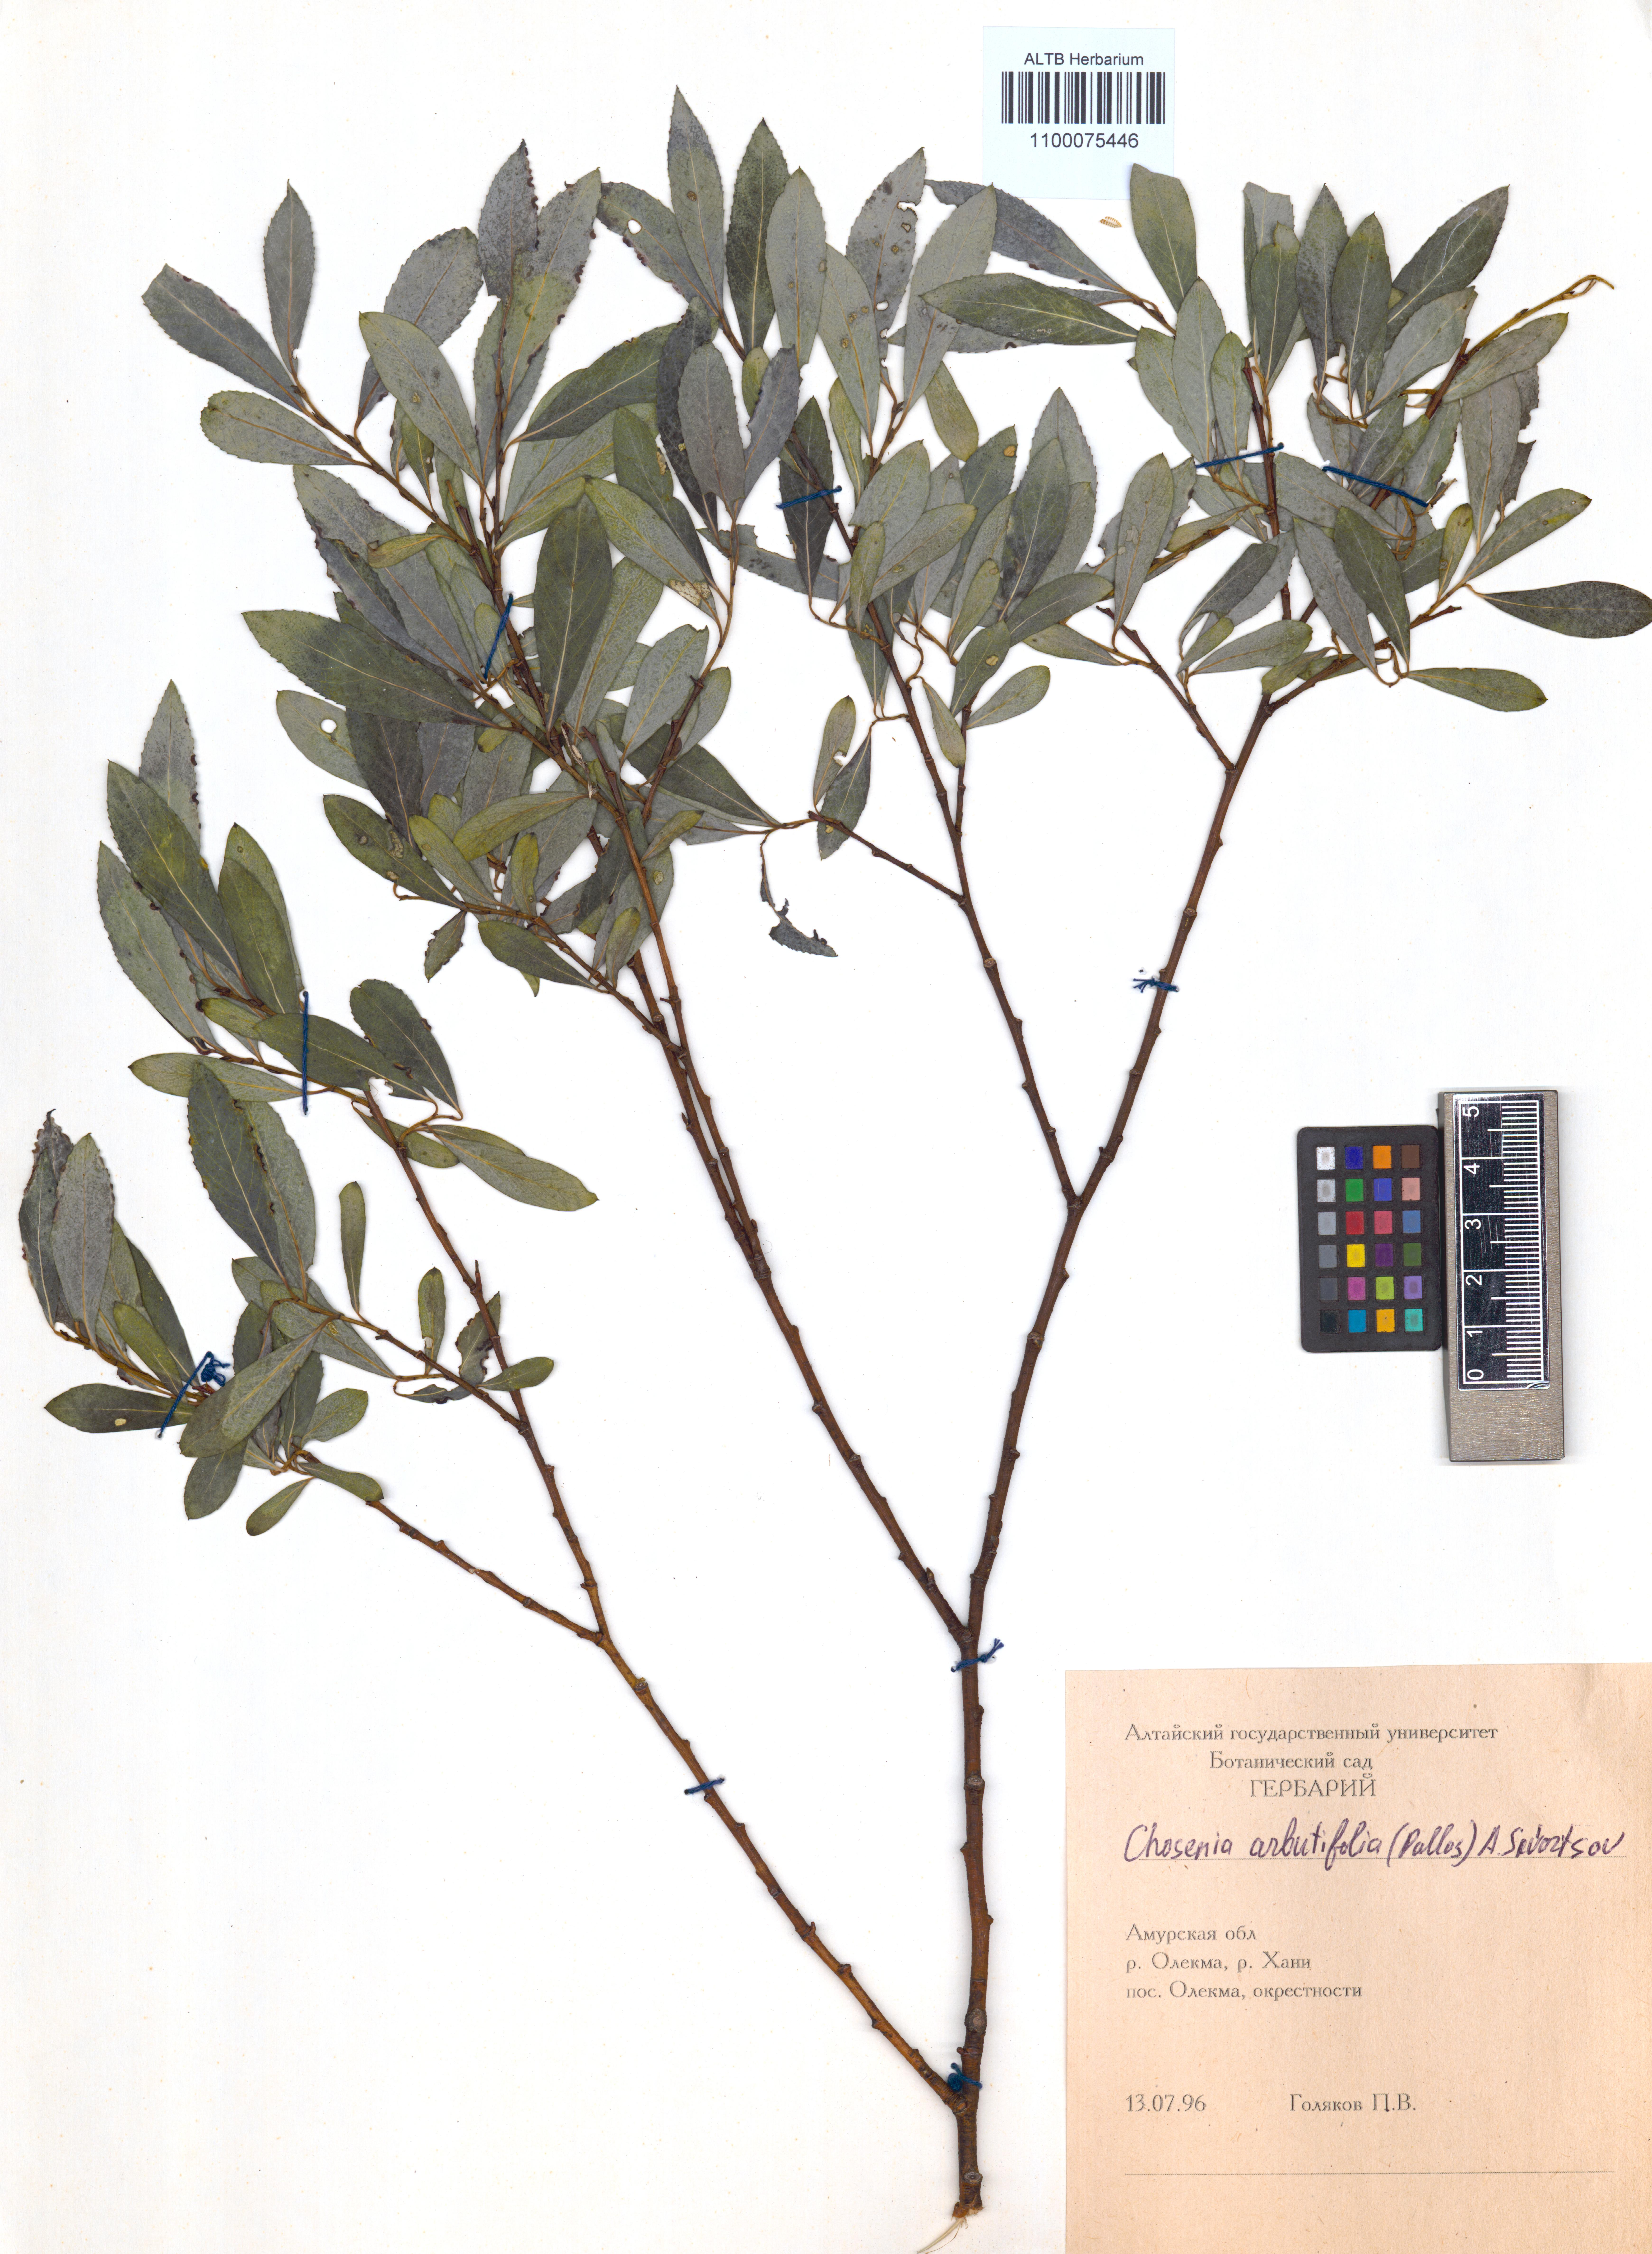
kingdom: Plantae
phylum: Tracheophyta
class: Magnoliopsida
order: Malpighiales
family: Salicaceae
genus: Chosenia
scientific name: Chosenia arbutifolia
